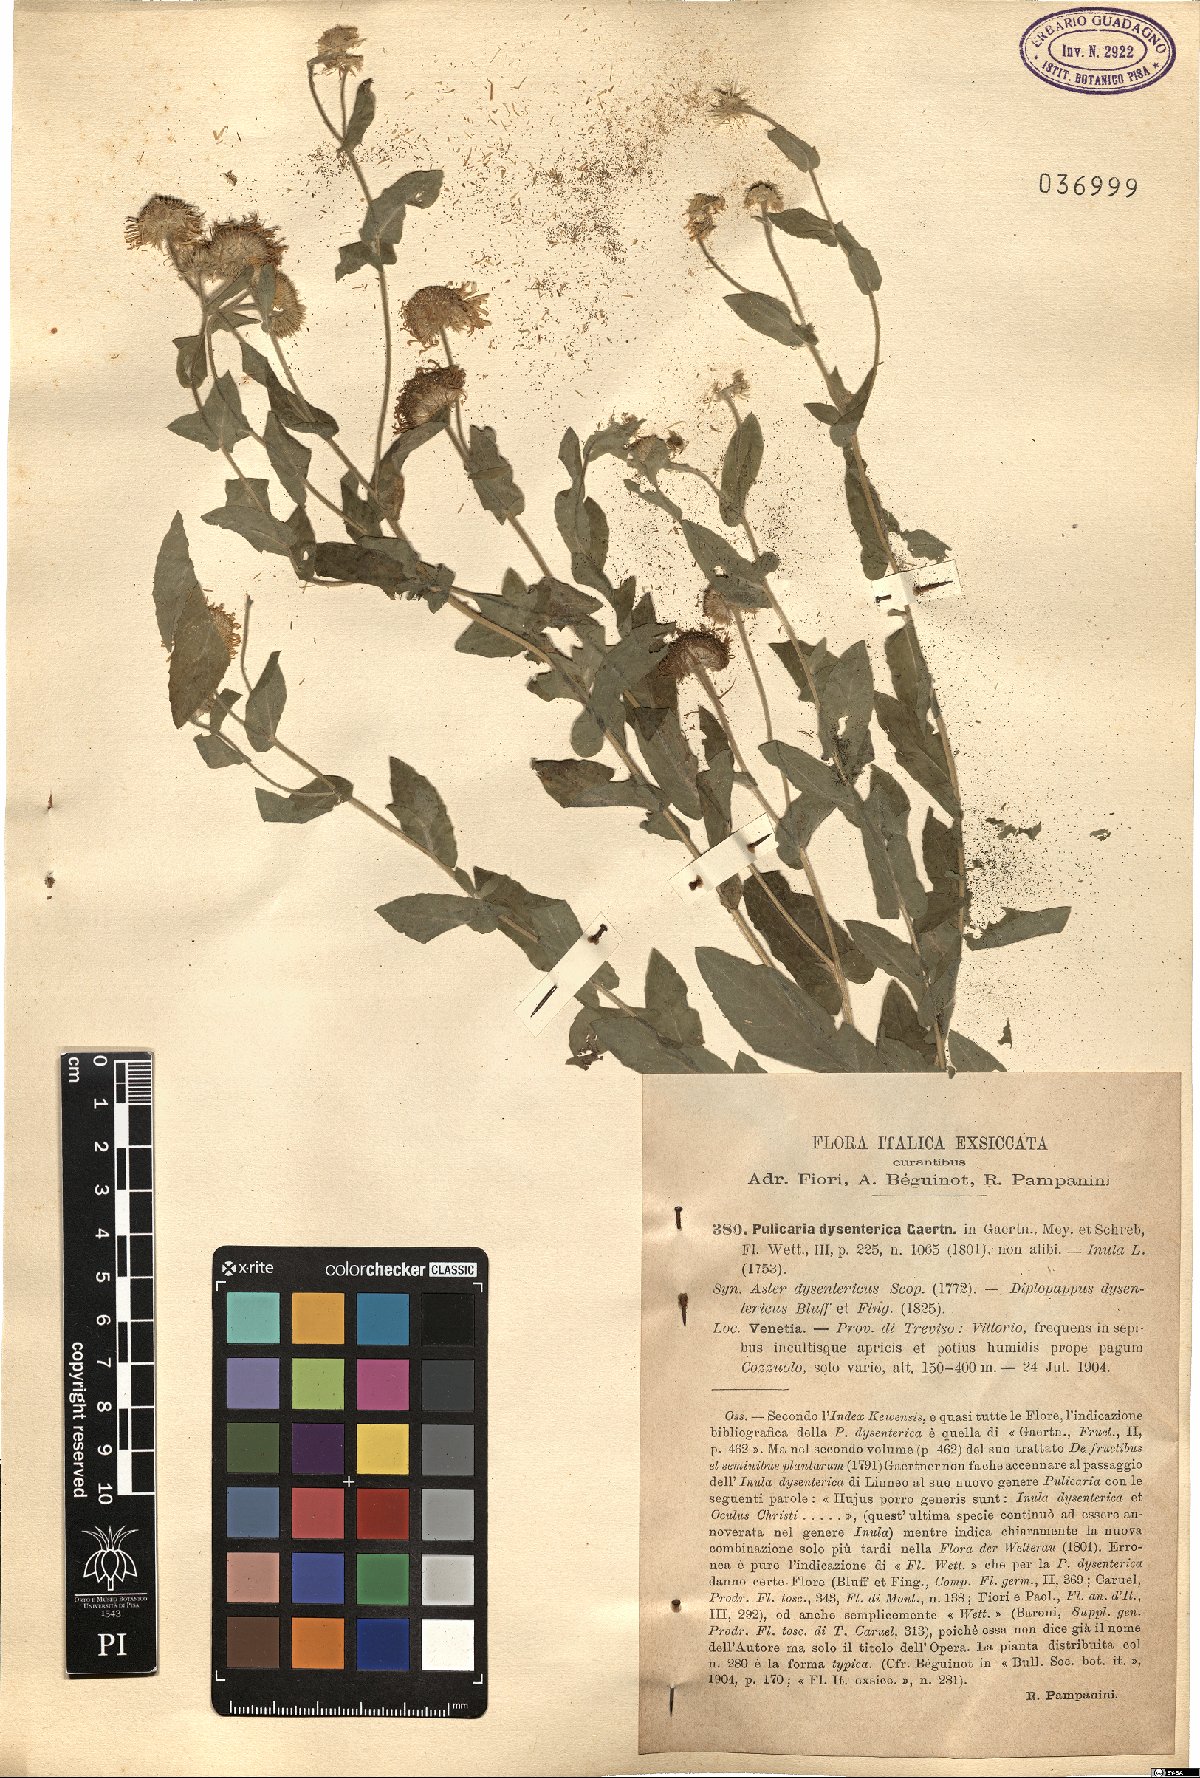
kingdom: Plantae
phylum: Tracheophyta
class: Magnoliopsida
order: Asterales
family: Asteraceae
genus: Pulicaria
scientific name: Pulicaria dysenterica
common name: Common fleabane
